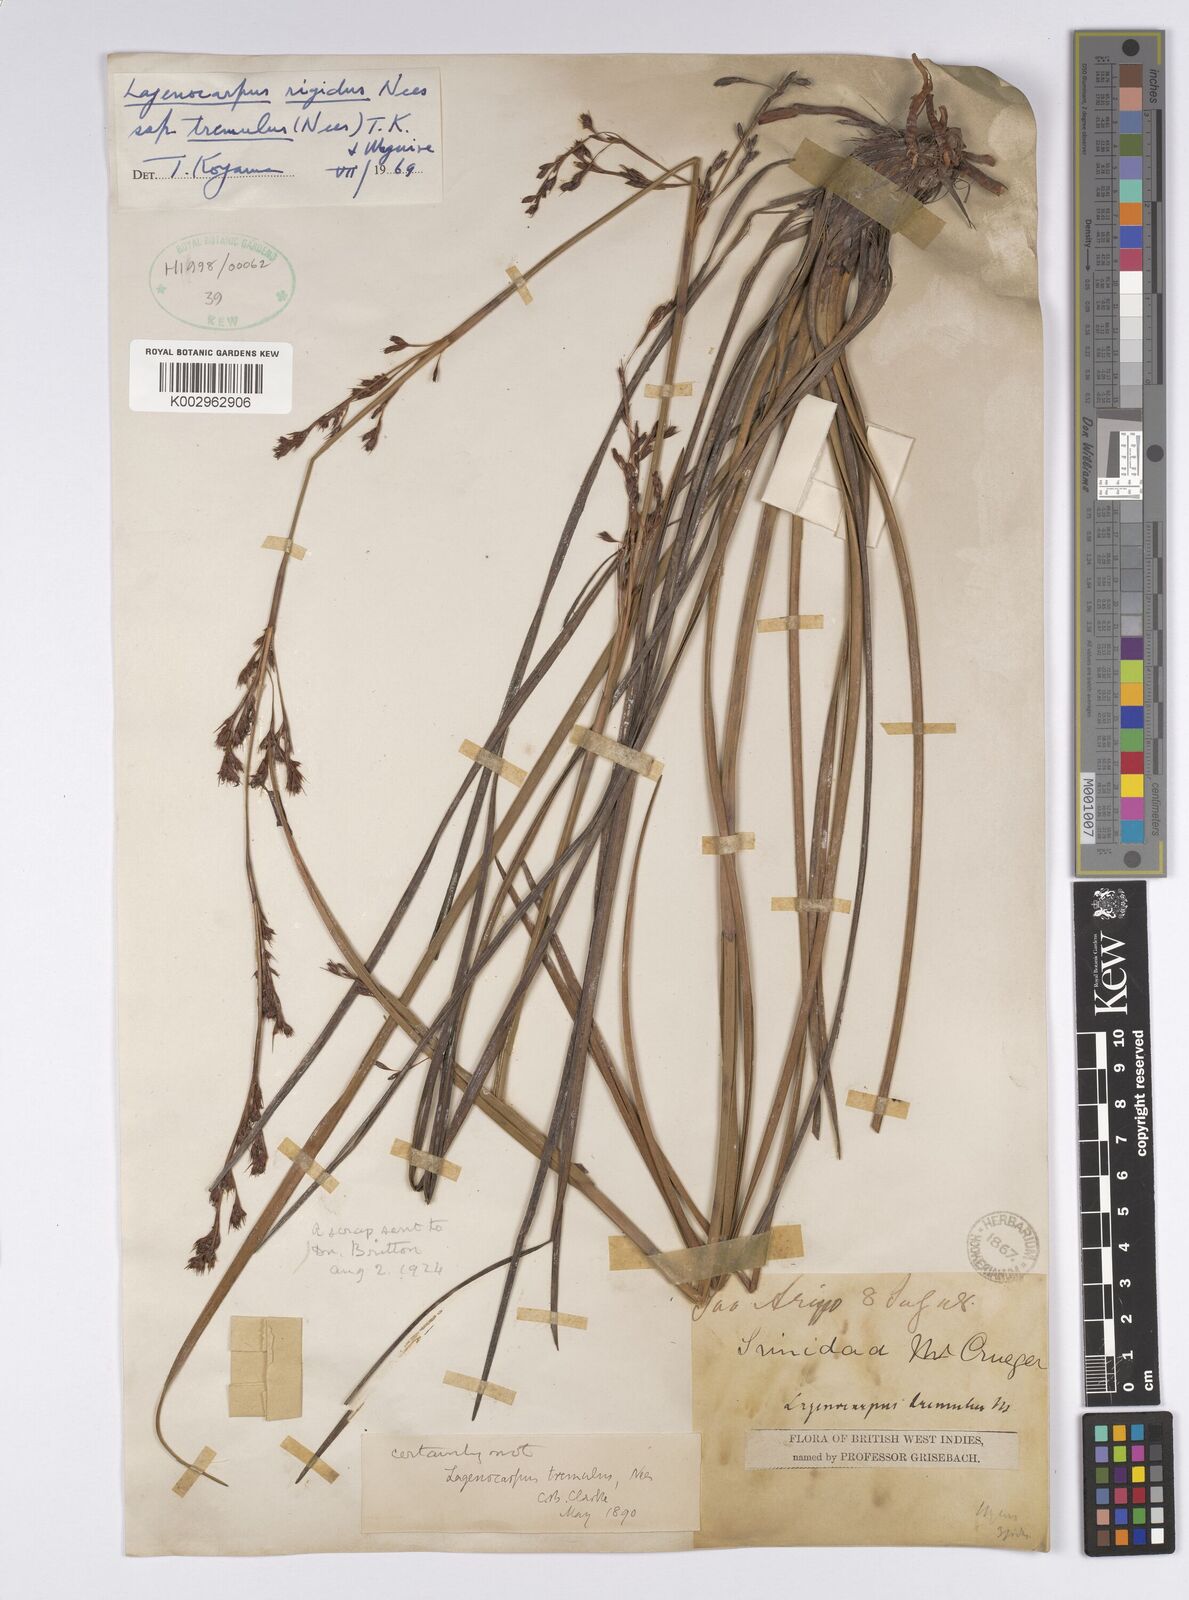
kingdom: Plantae
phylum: Tracheophyta
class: Liliopsida
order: Poales
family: Cyperaceae
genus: Lagenocarpus
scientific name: Lagenocarpus rigidus
